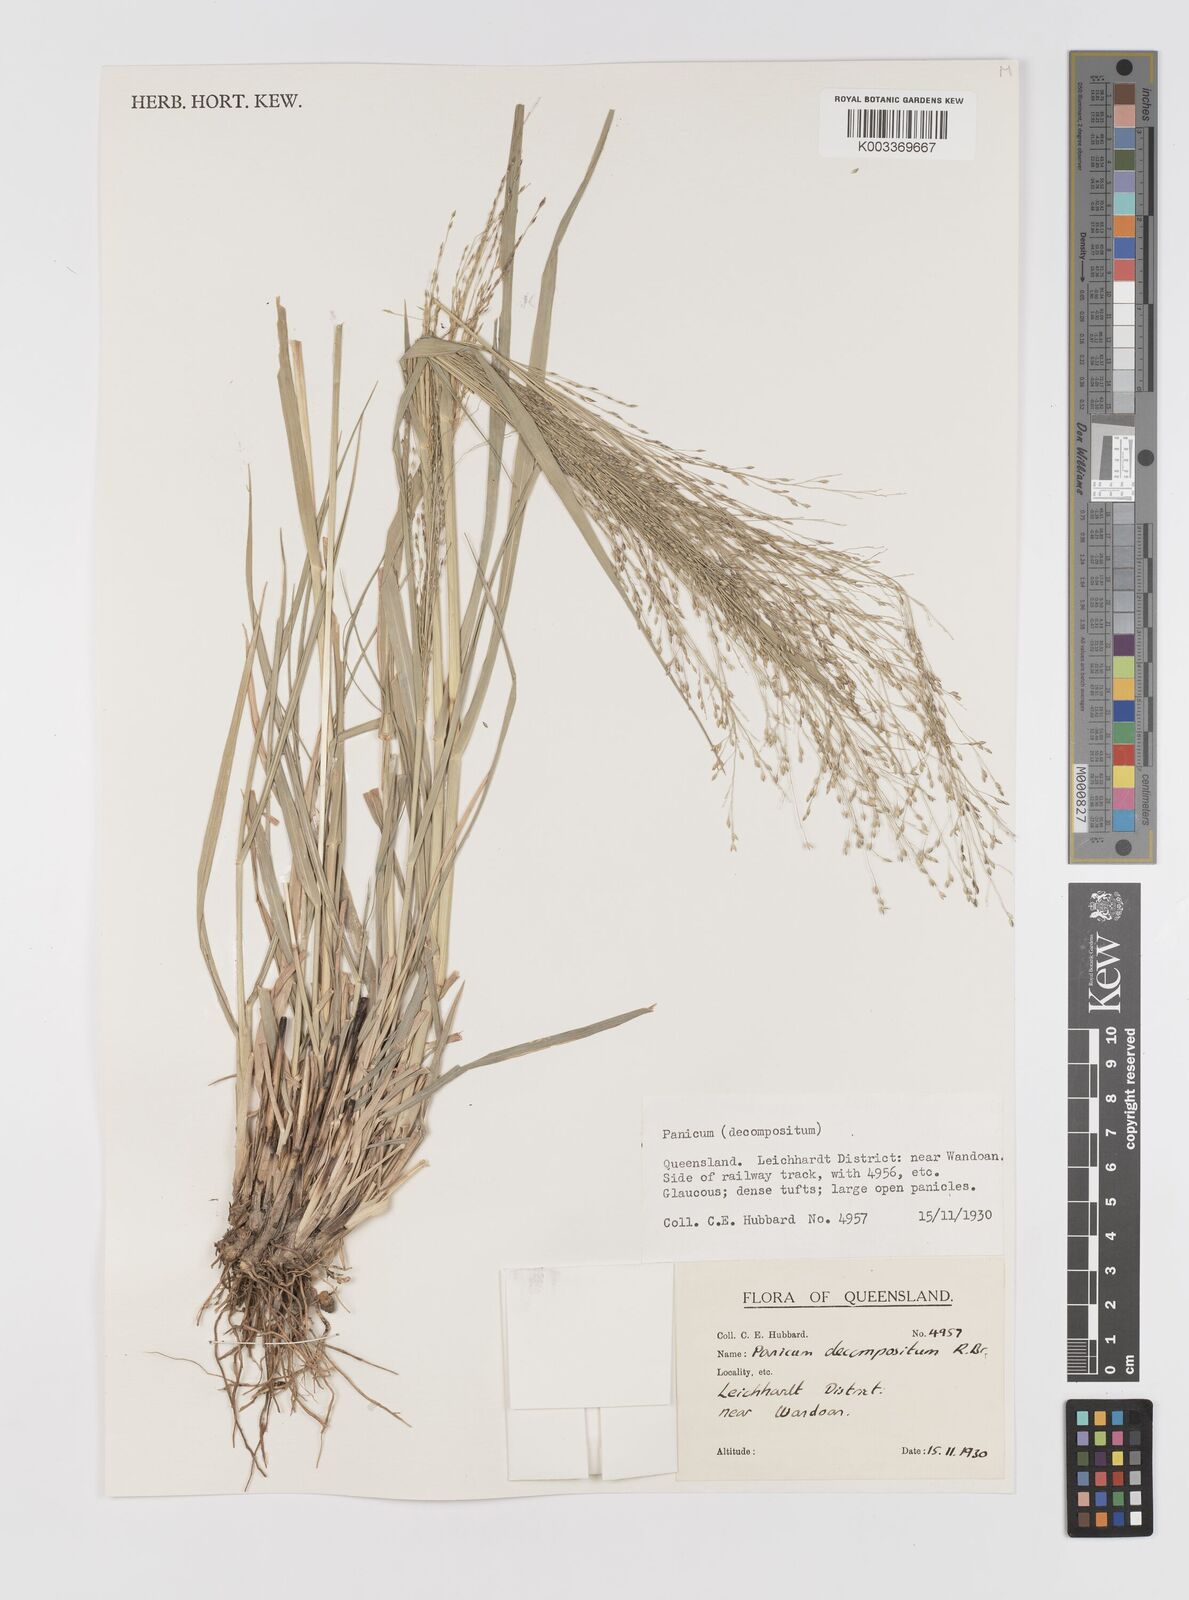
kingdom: Plantae
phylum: Tracheophyta
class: Liliopsida
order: Poales
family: Poaceae
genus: Panicum
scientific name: Panicum decompositum
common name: Australian millet
